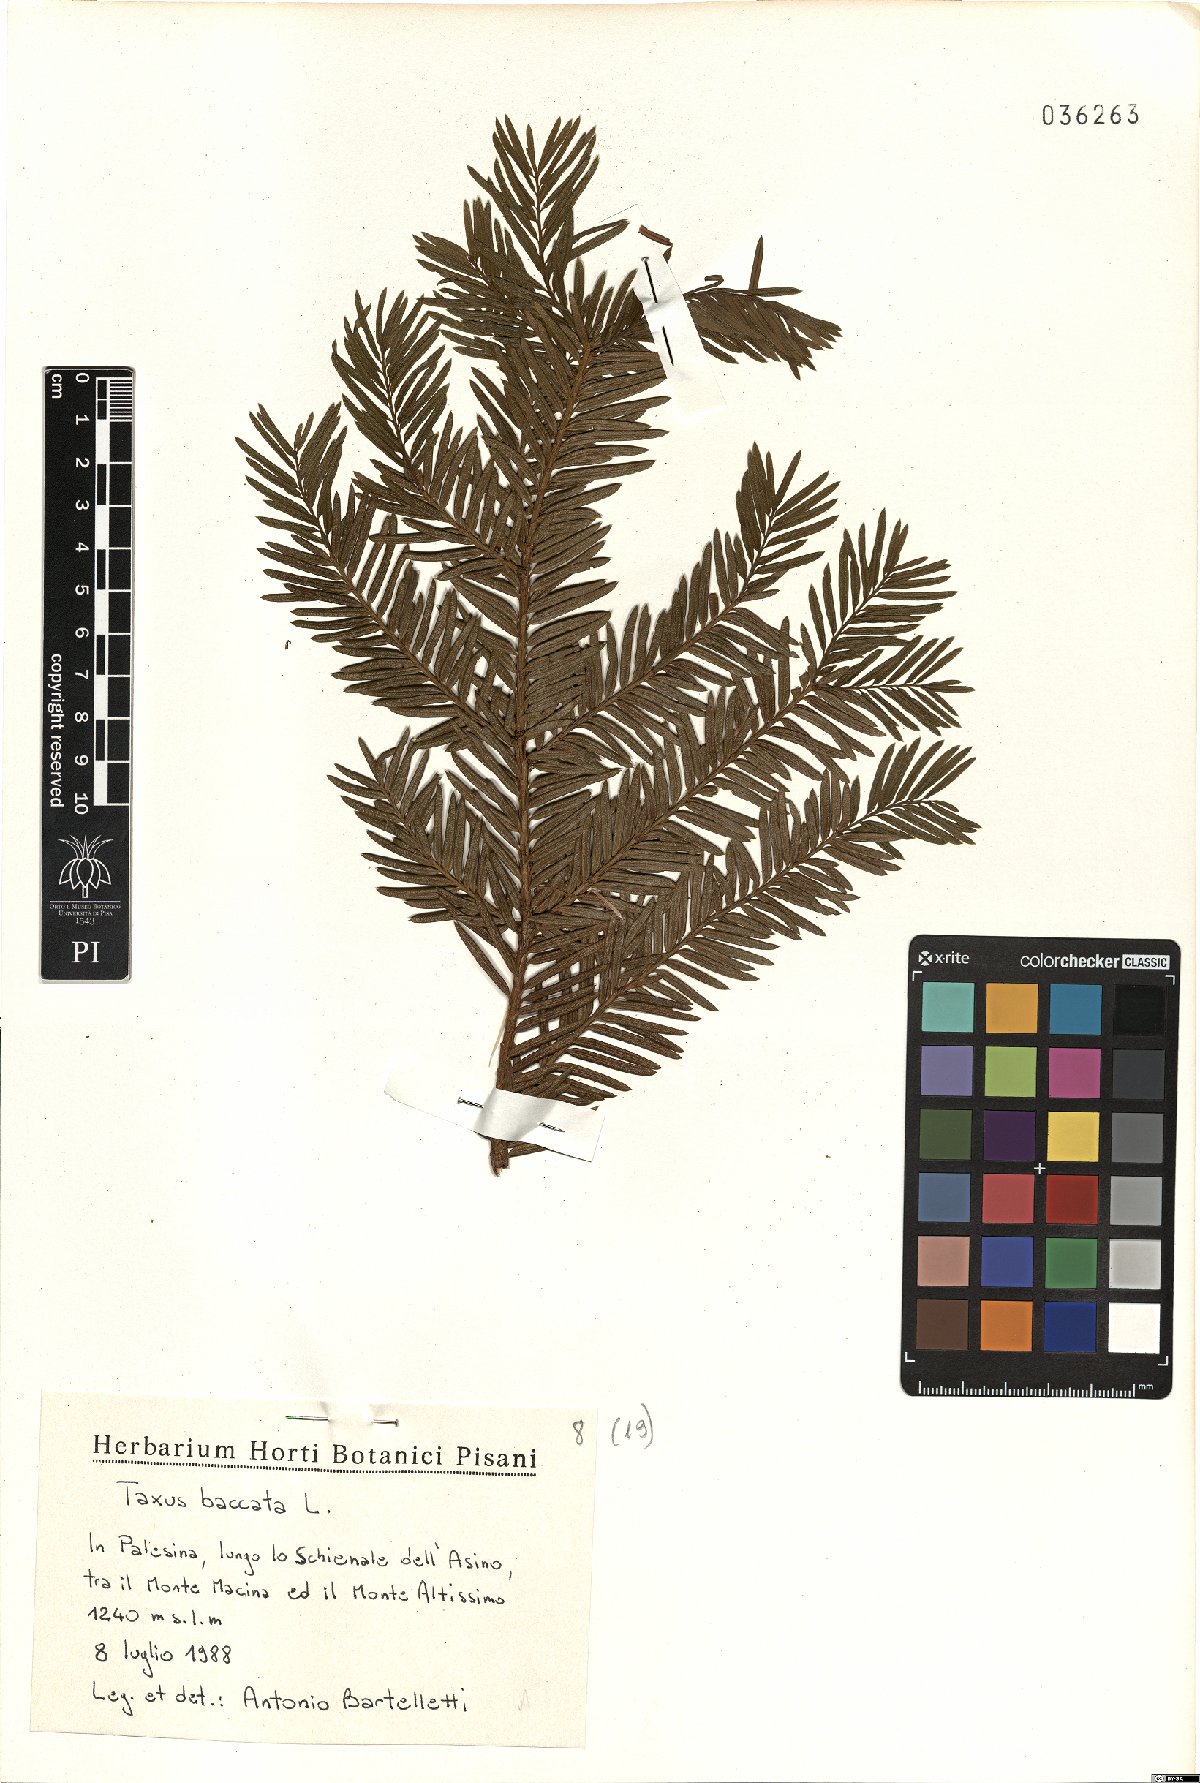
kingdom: Plantae
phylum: Tracheophyta
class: Pinopsida
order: Pinales
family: Taxaceae
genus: Taxus
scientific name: Taxus baccata
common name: Yew
